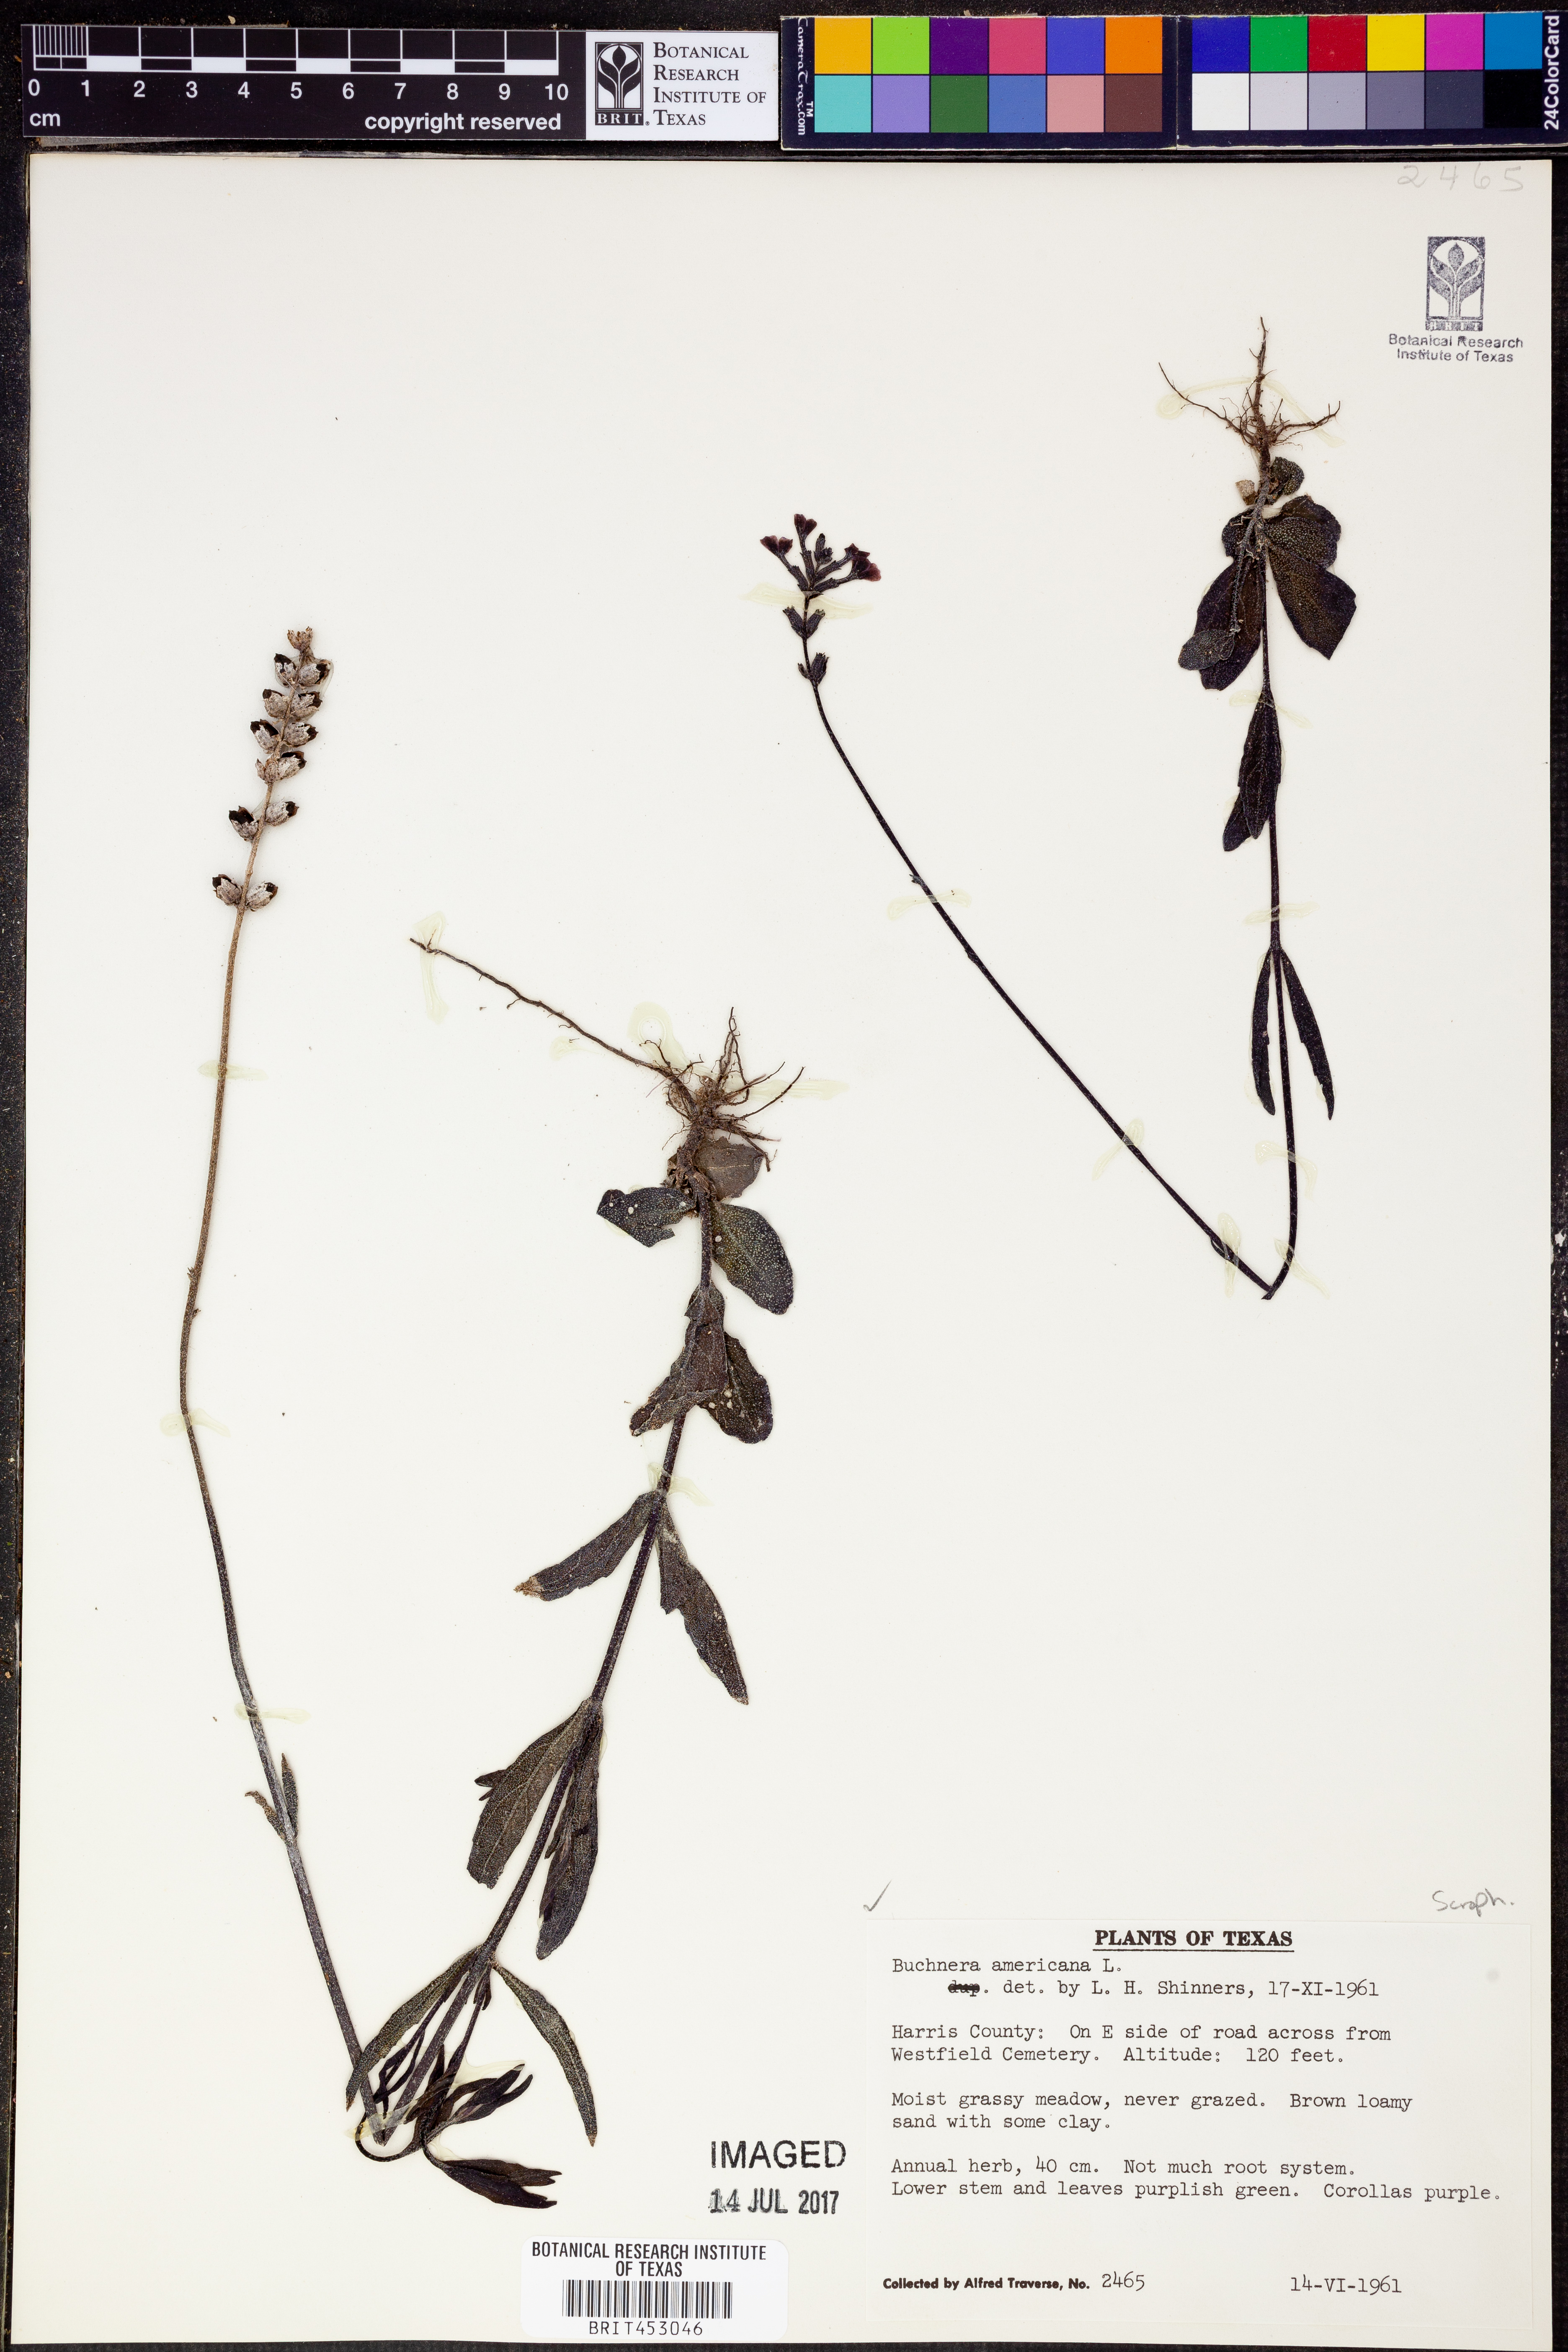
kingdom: Plantae
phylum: Tracheophyta
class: Magnoliopsida
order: Lamiales
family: Orobanchaceae
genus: Buchnera
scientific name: Buchnera americana
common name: American bluehearts
